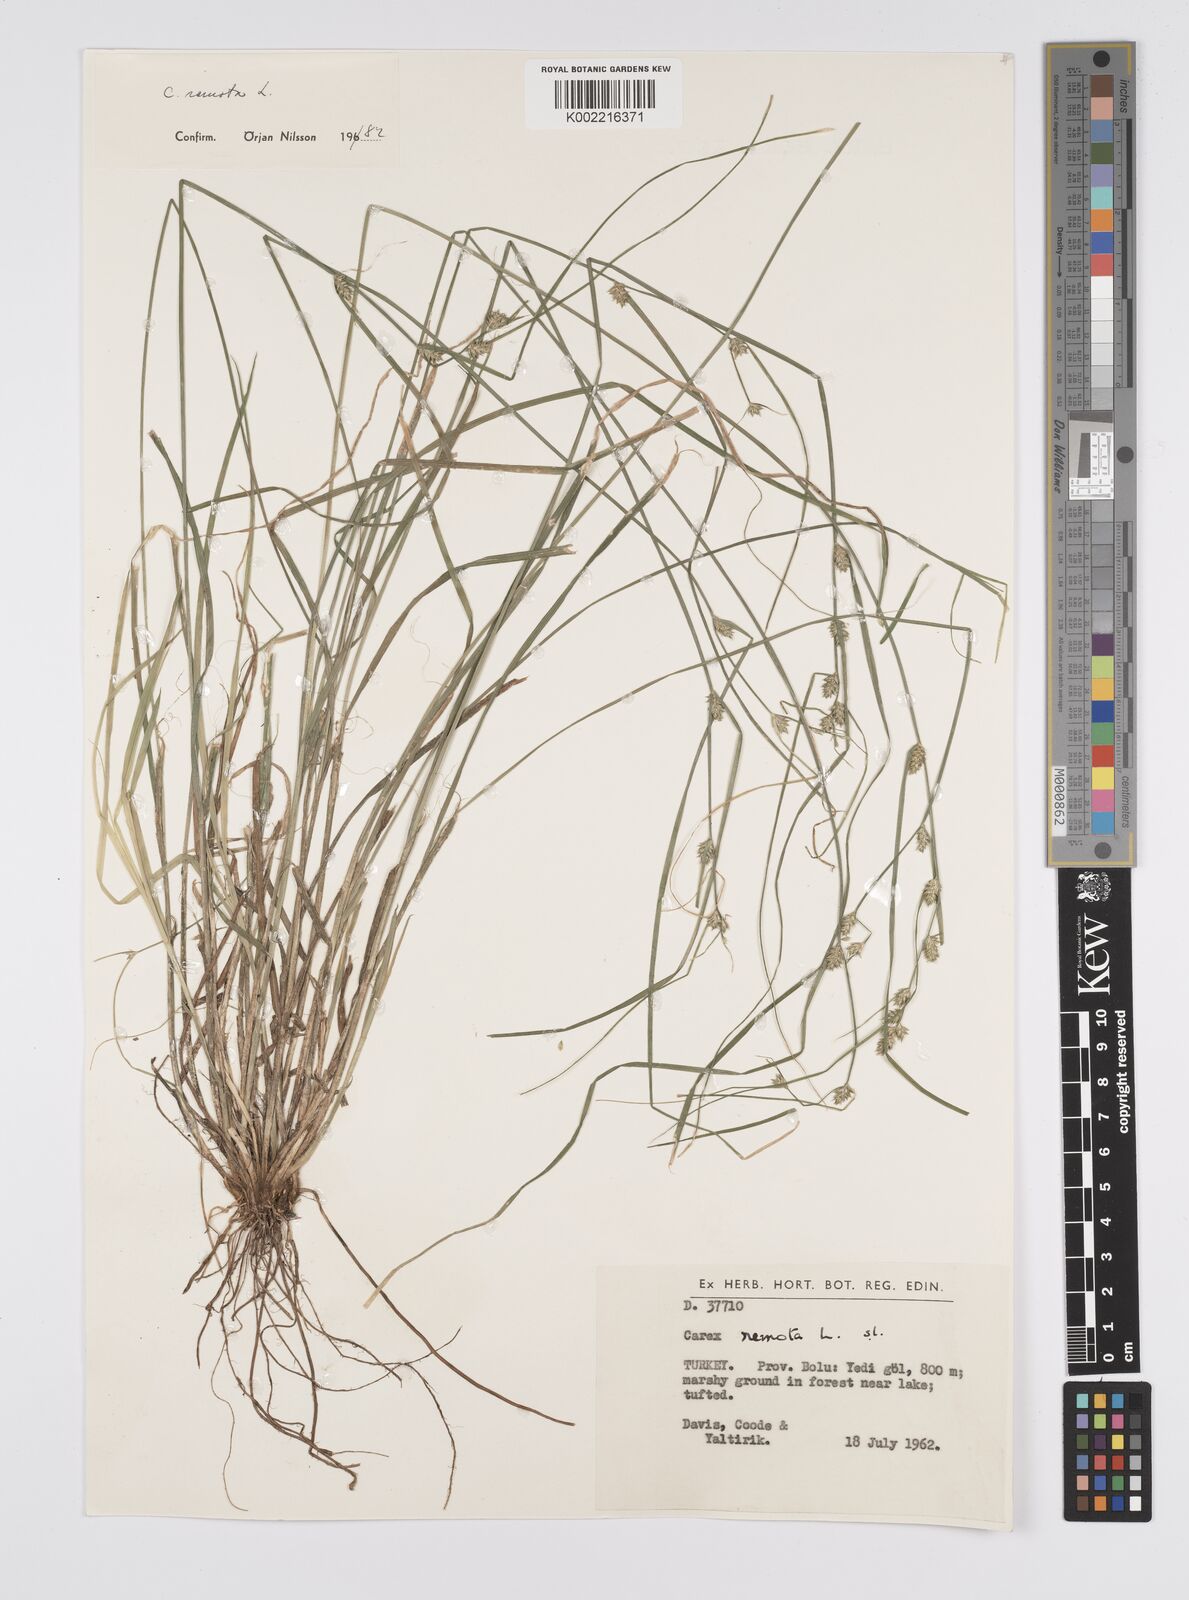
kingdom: Plantae
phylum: Tracheophyta
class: Liliopsida
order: Poales
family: Cyperaceae
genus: Carex
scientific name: Carex remota
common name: Remote sedge
